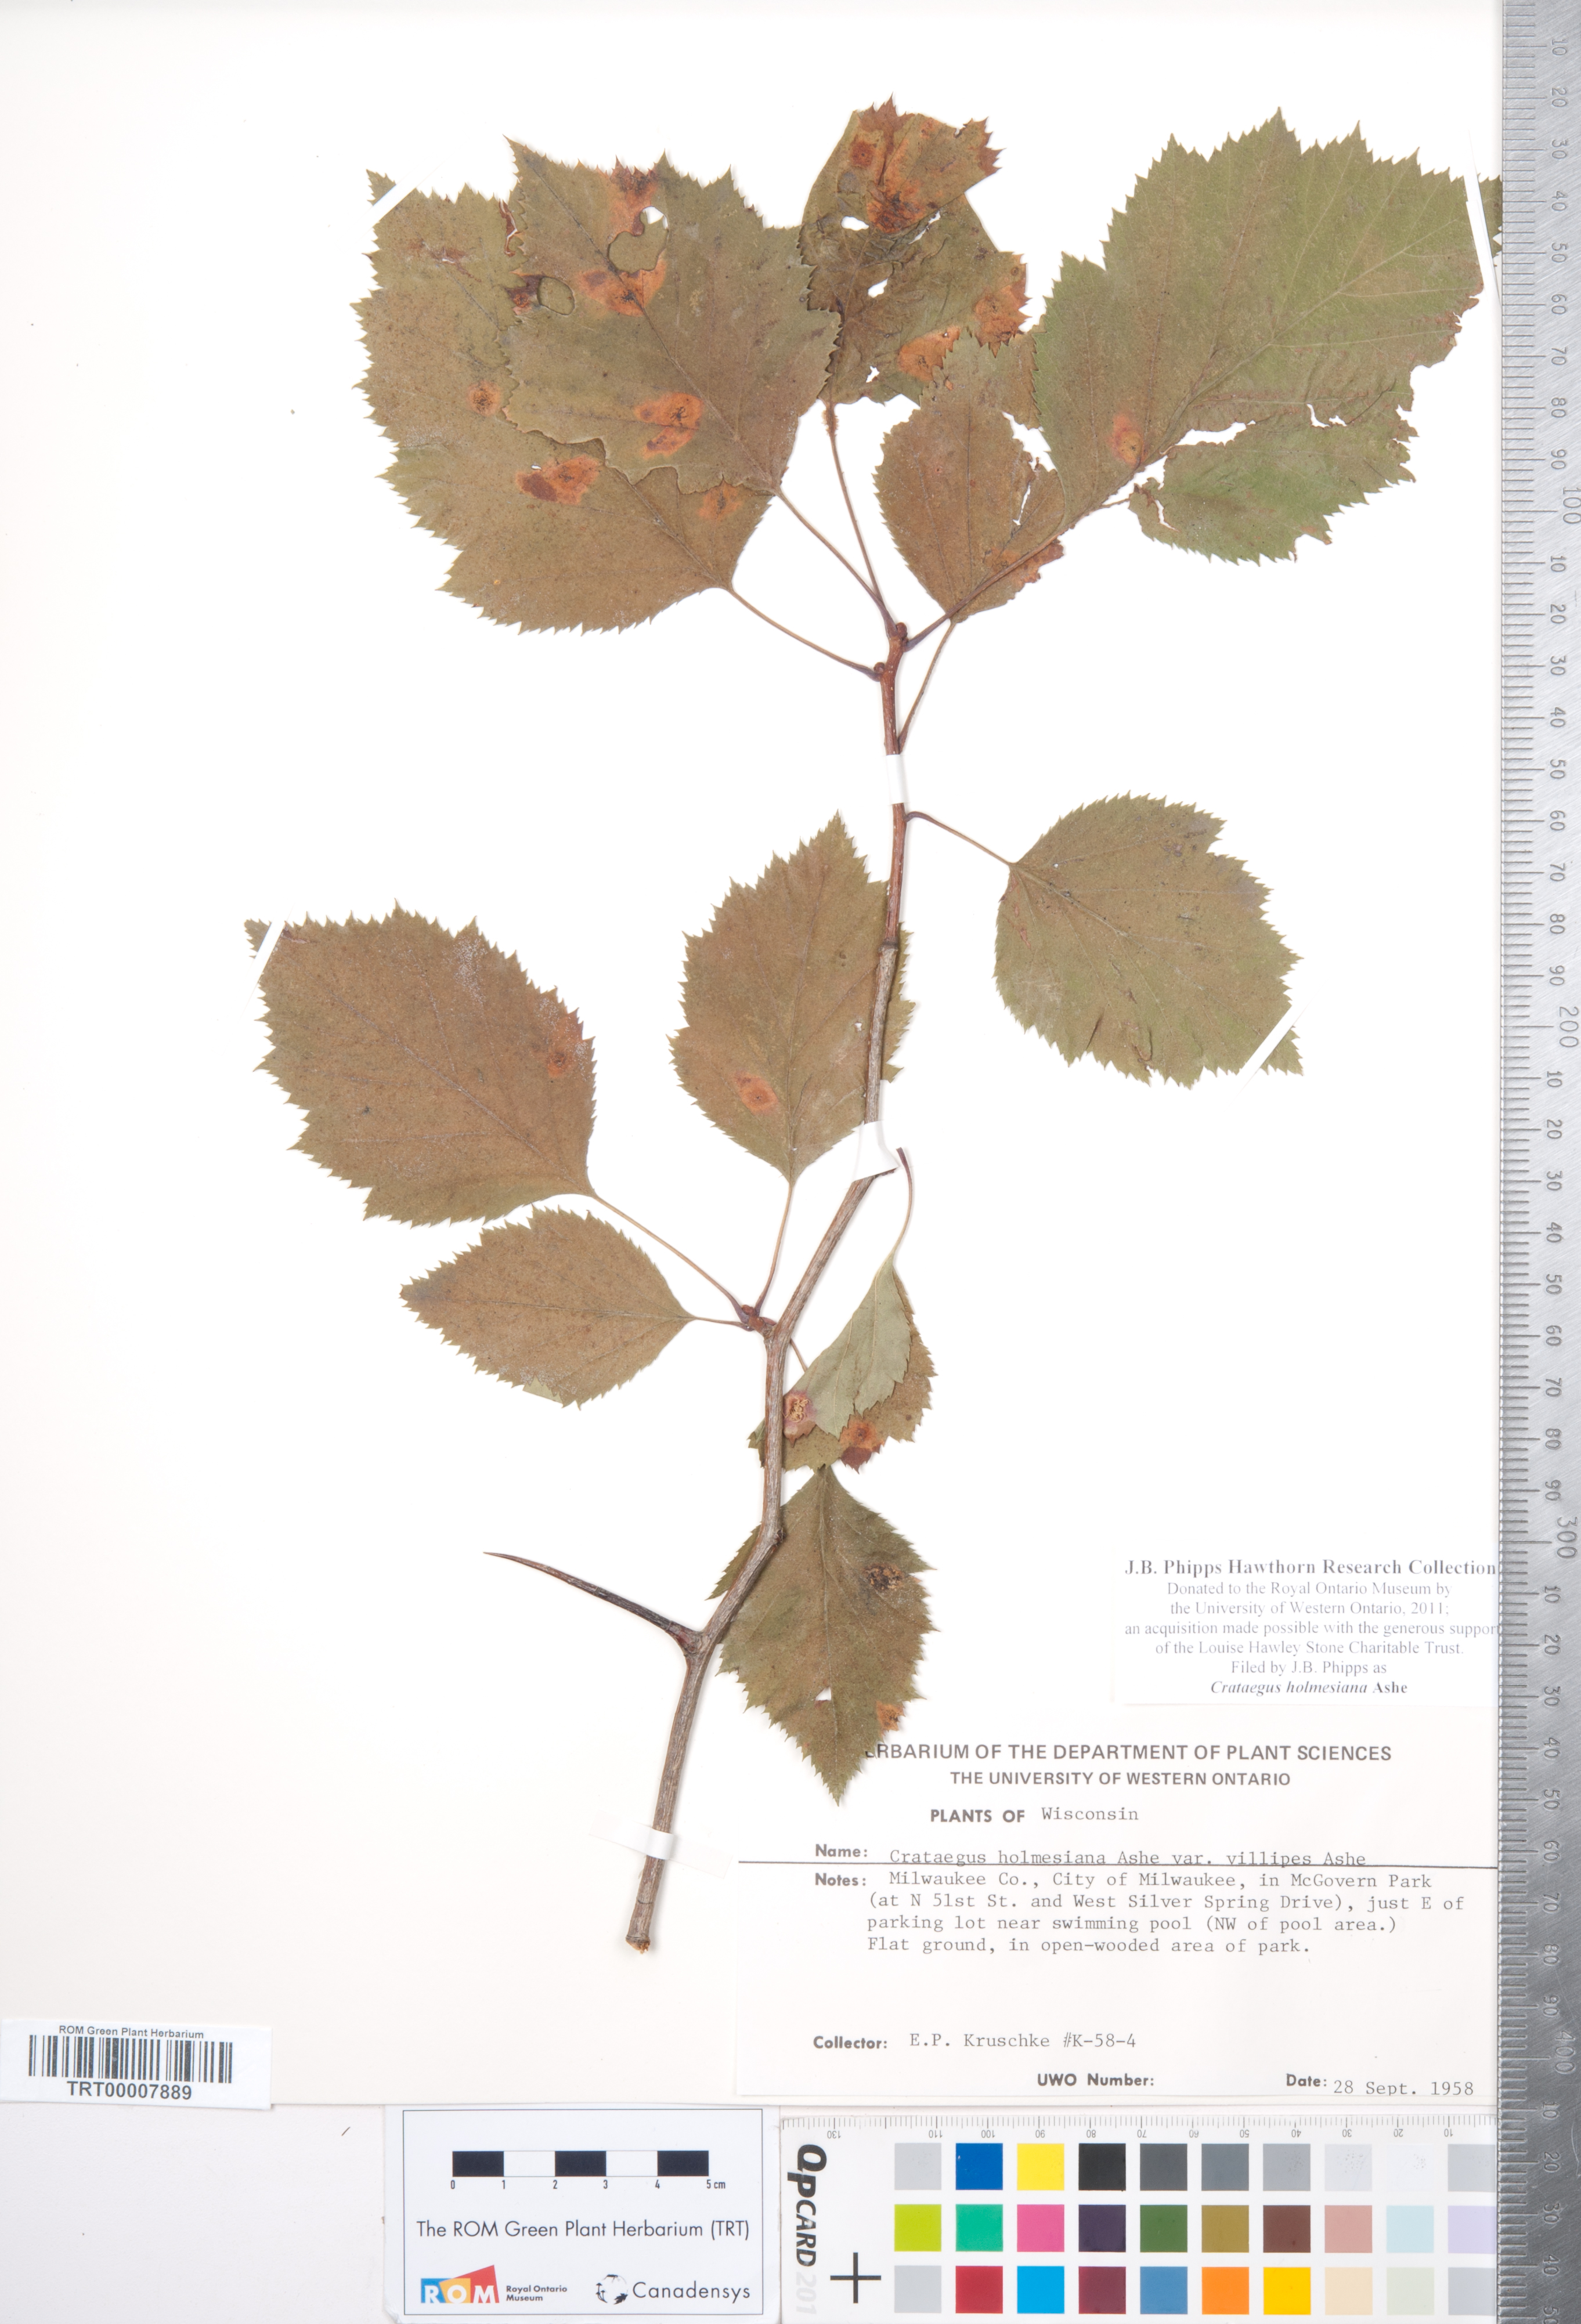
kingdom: Plantae
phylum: Tracheophyta
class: Magnoliopsida
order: Rosales
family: Rosaceae
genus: Crataegus
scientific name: Crataegus holmesiana
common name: Holmes' hawthorn
